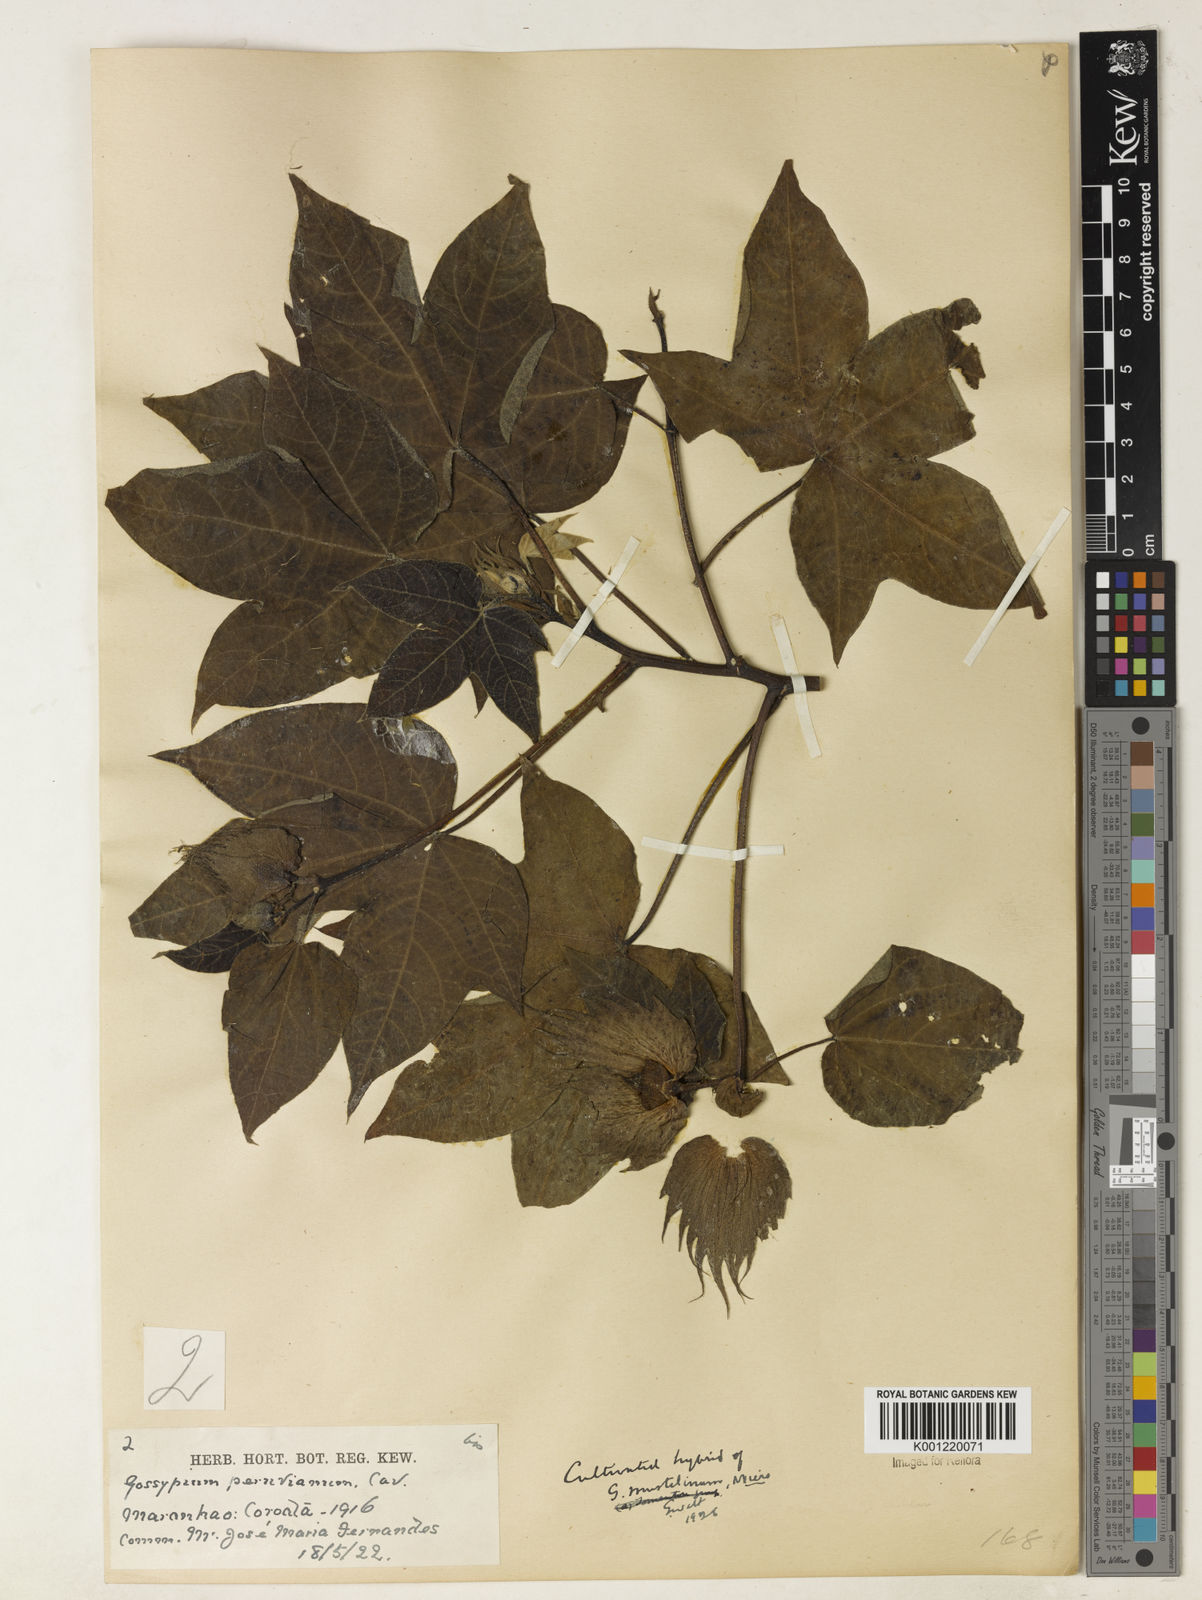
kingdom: Plantae
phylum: Tracheophyta
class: Magnoliopsida
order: Malvales
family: Malvaceae
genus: Gossypium
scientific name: Gossypium
